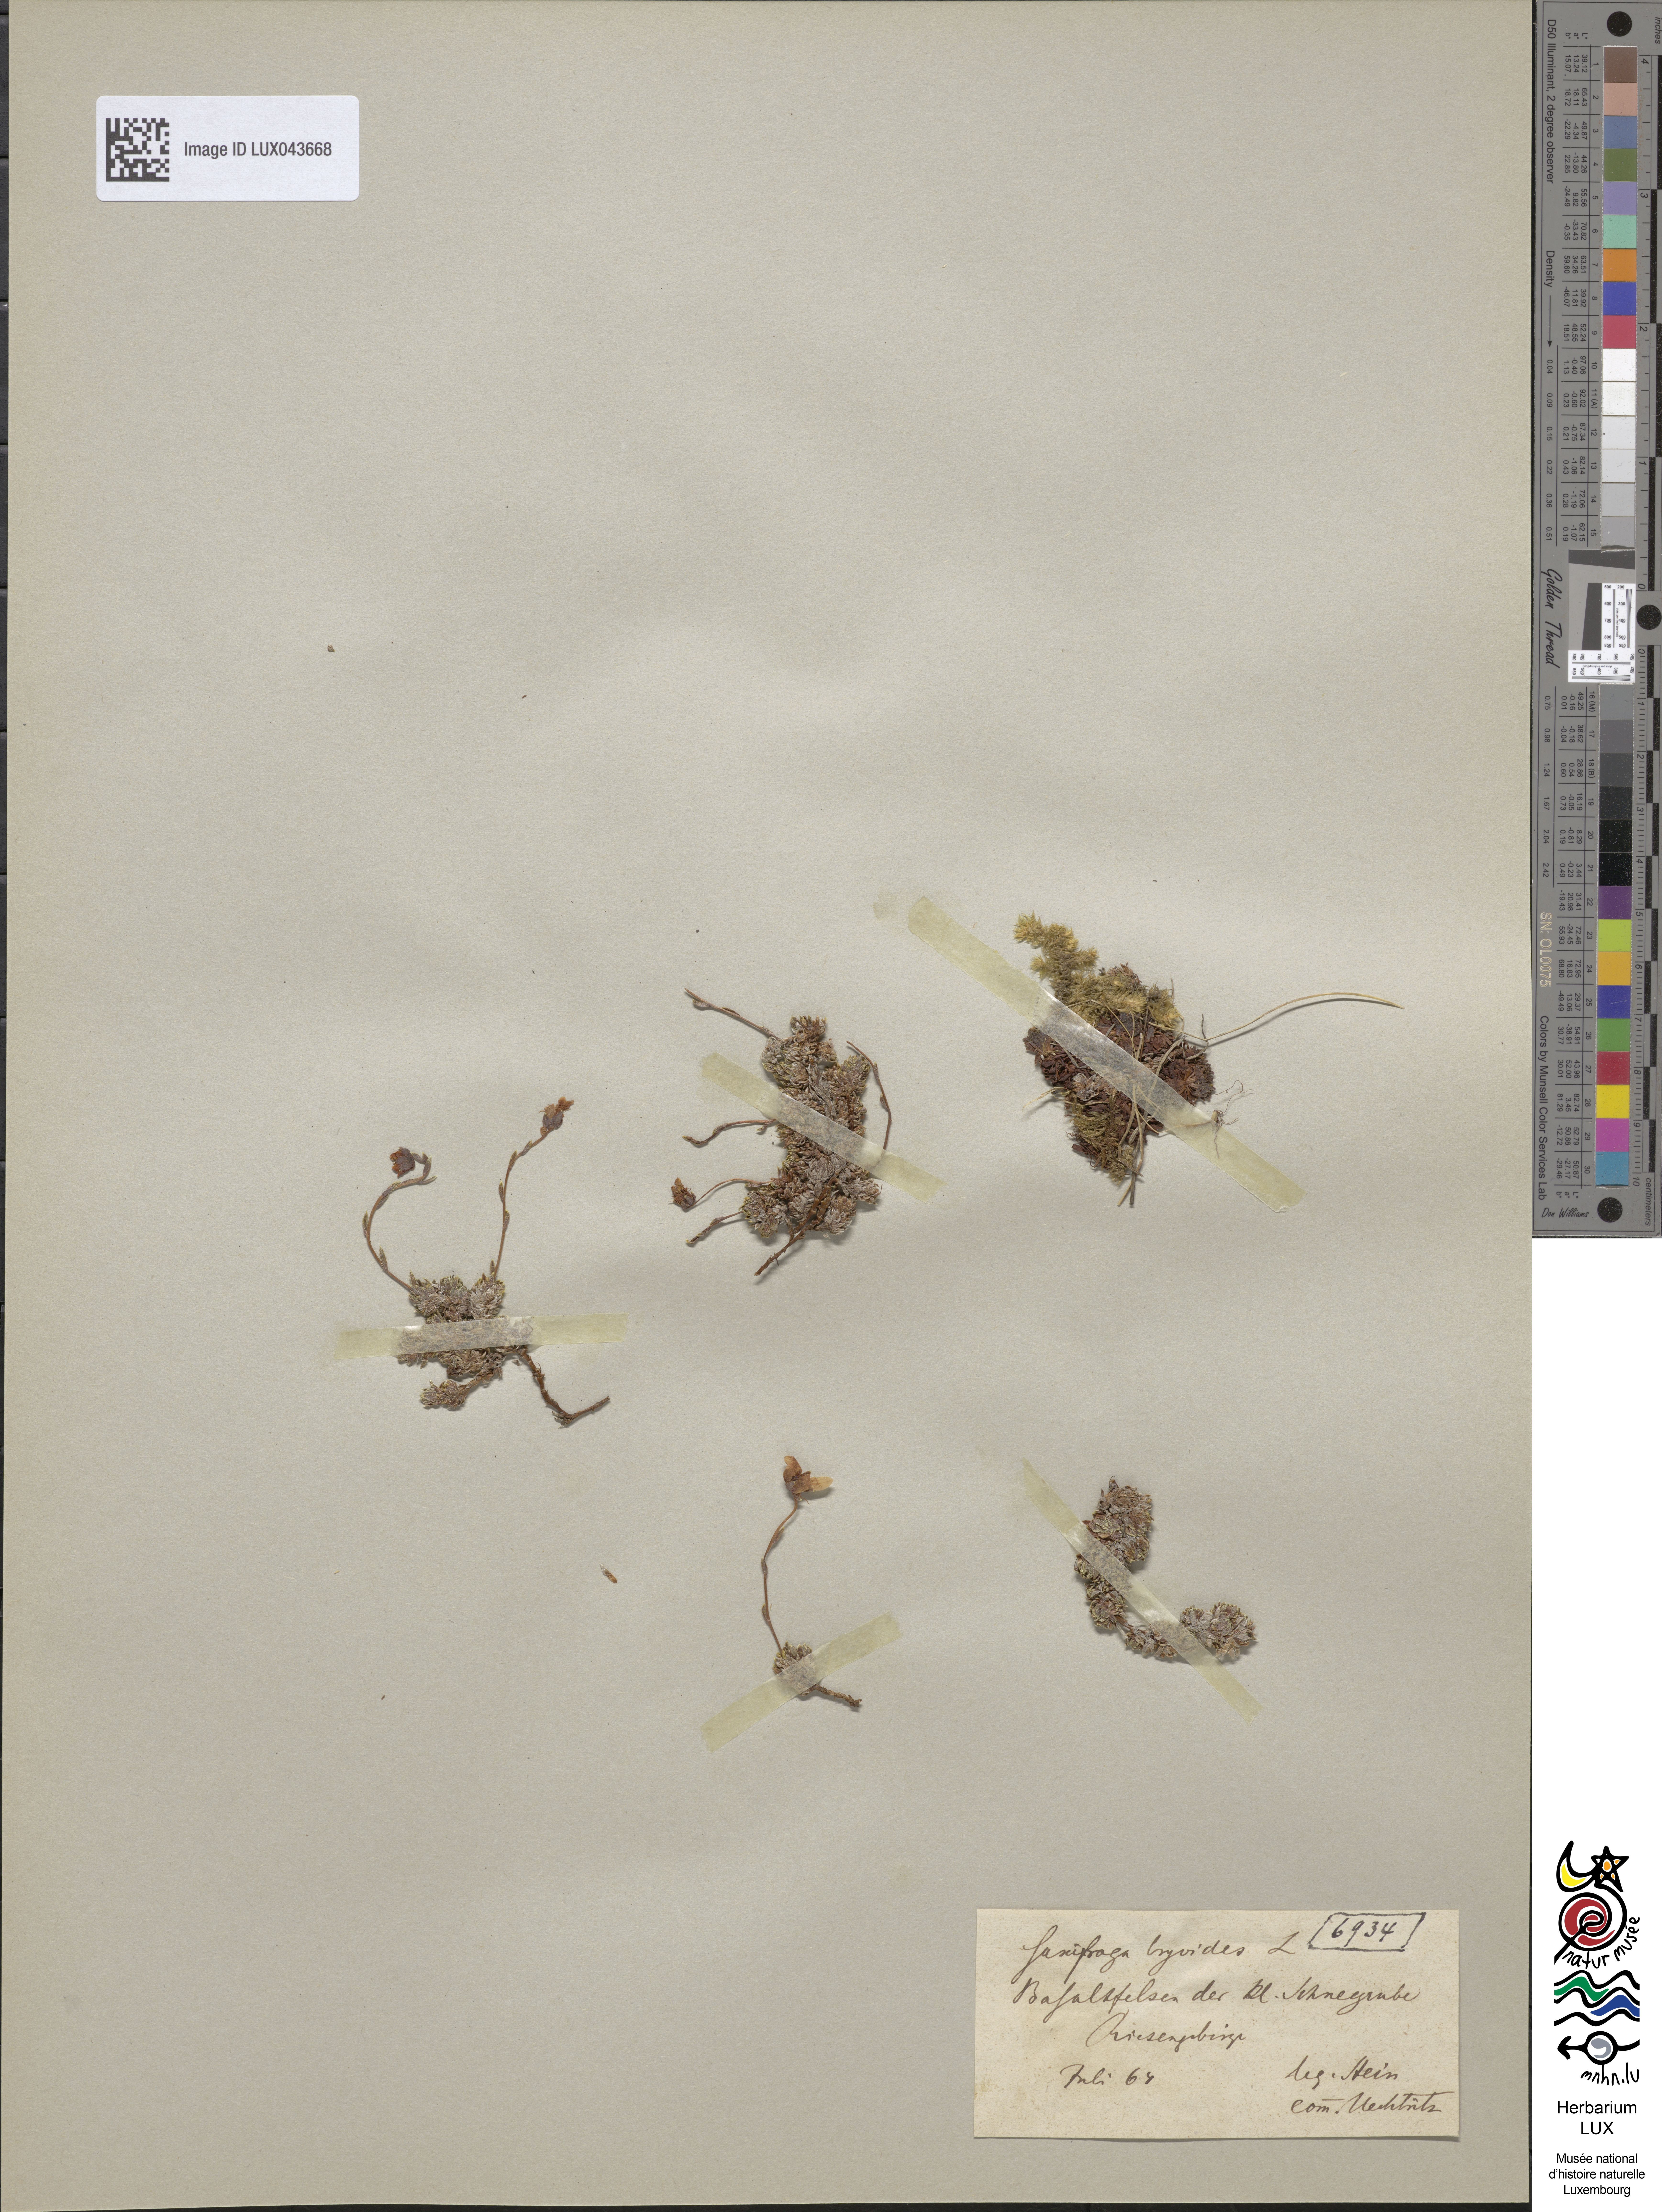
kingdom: Plantae
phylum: Tracheophyta
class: Magnoliopsida
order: Saxifragales
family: Saxifragaceae
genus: Saxifraga
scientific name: Saxifraga bryoides
